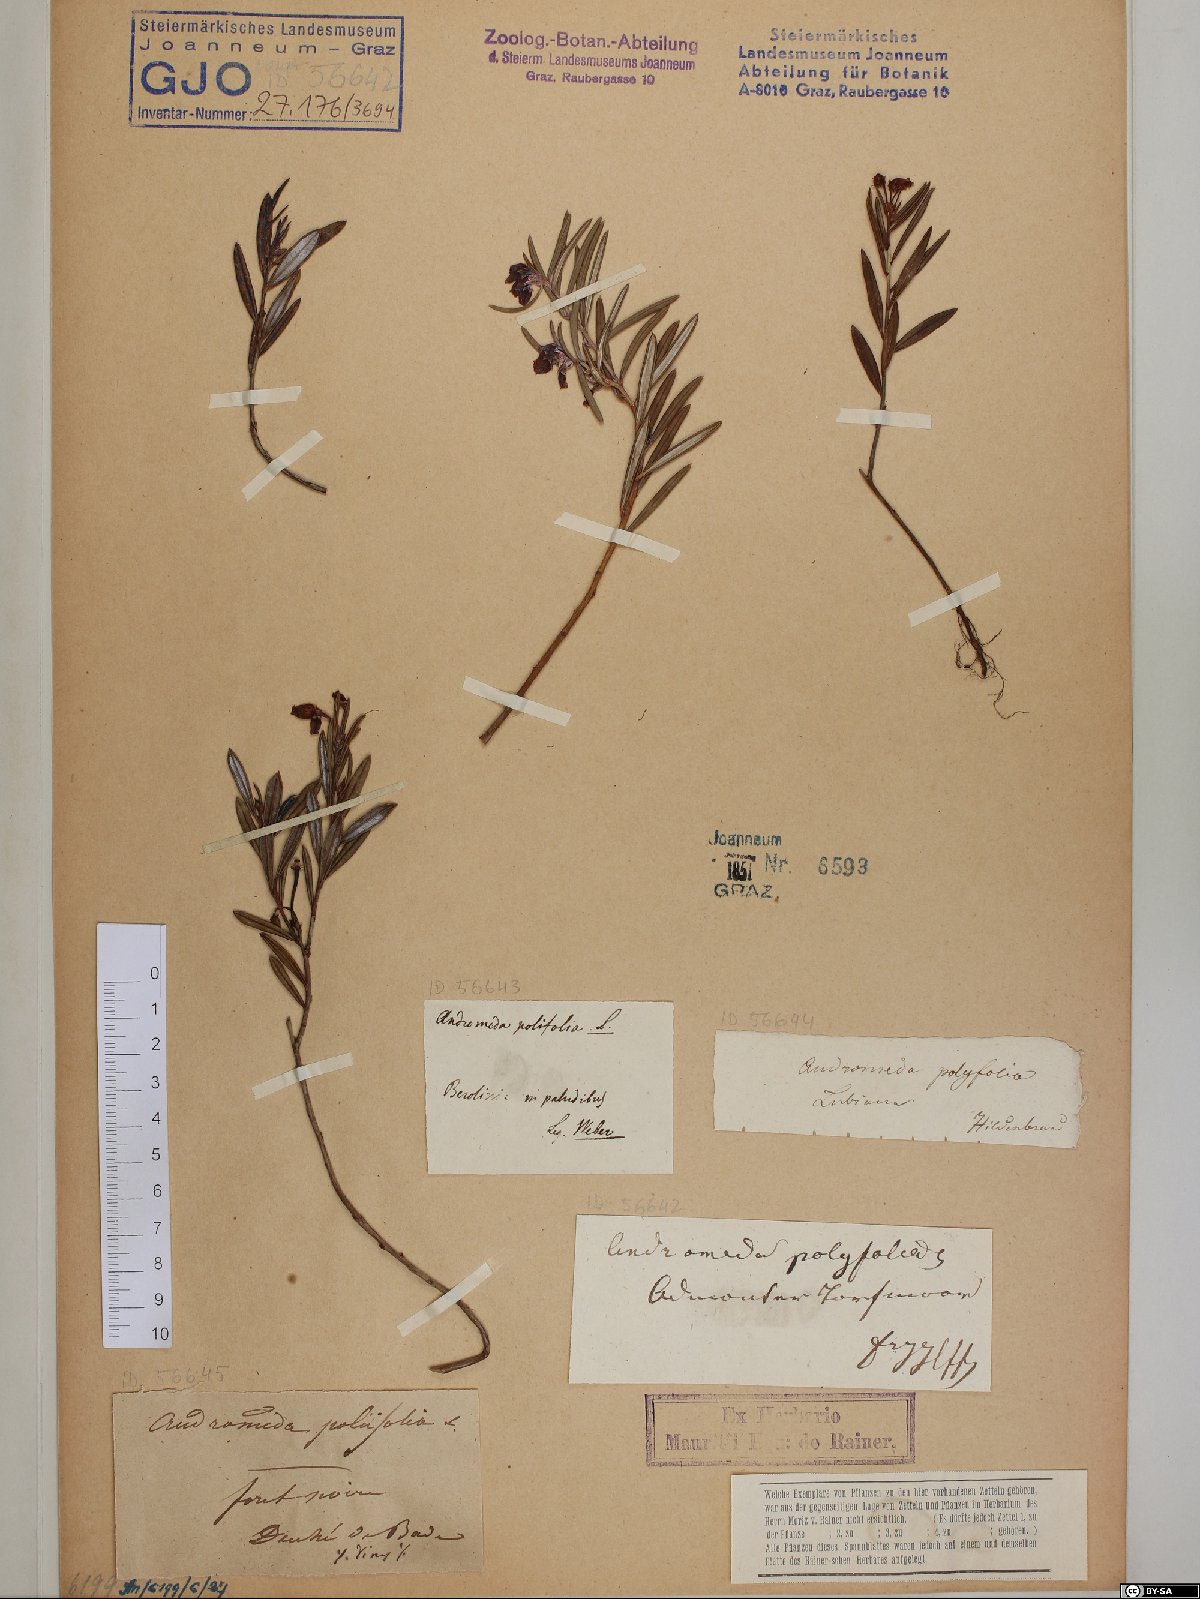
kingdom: Plantae
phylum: Tracheophyta
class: Magnoliopsida
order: Ericales
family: Ericaceae
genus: Andromeda
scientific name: Andromeda polifolia
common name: Bog-rosemary
